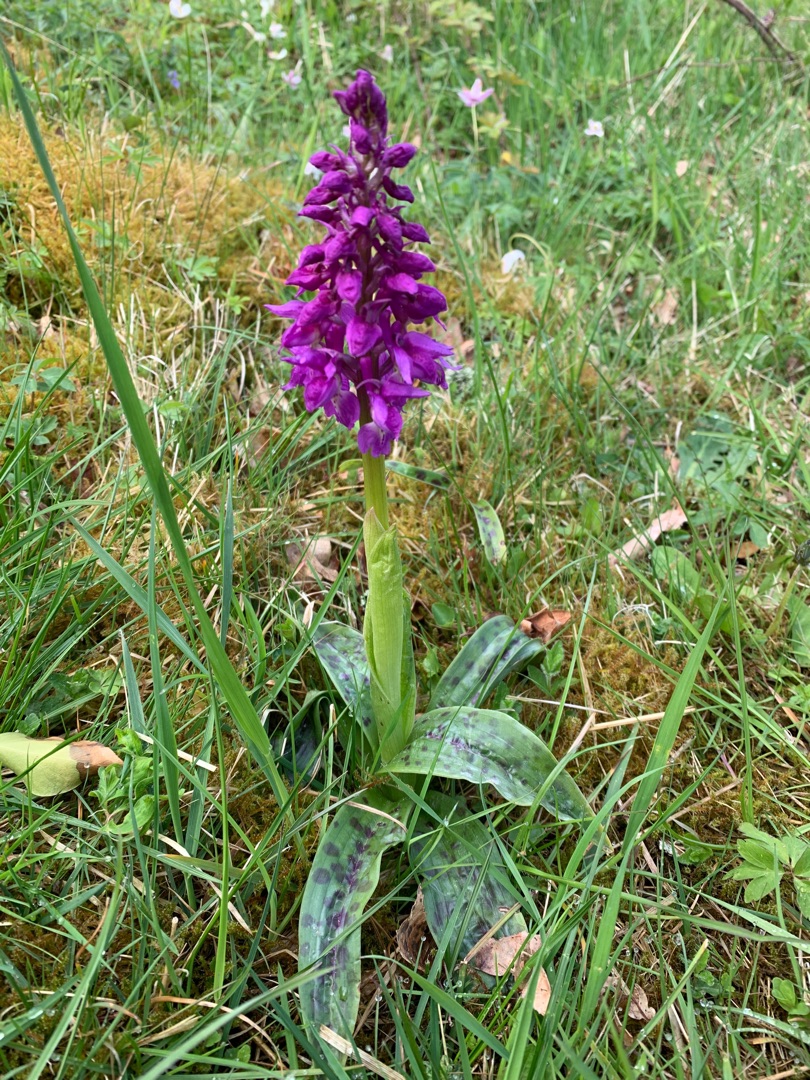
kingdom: Plantae
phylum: Tracheophyta
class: Liliopsida
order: Asparagales
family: Orchidaceae
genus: Orchis
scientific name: Orchis mascula
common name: Tyndakset gøgeurt
